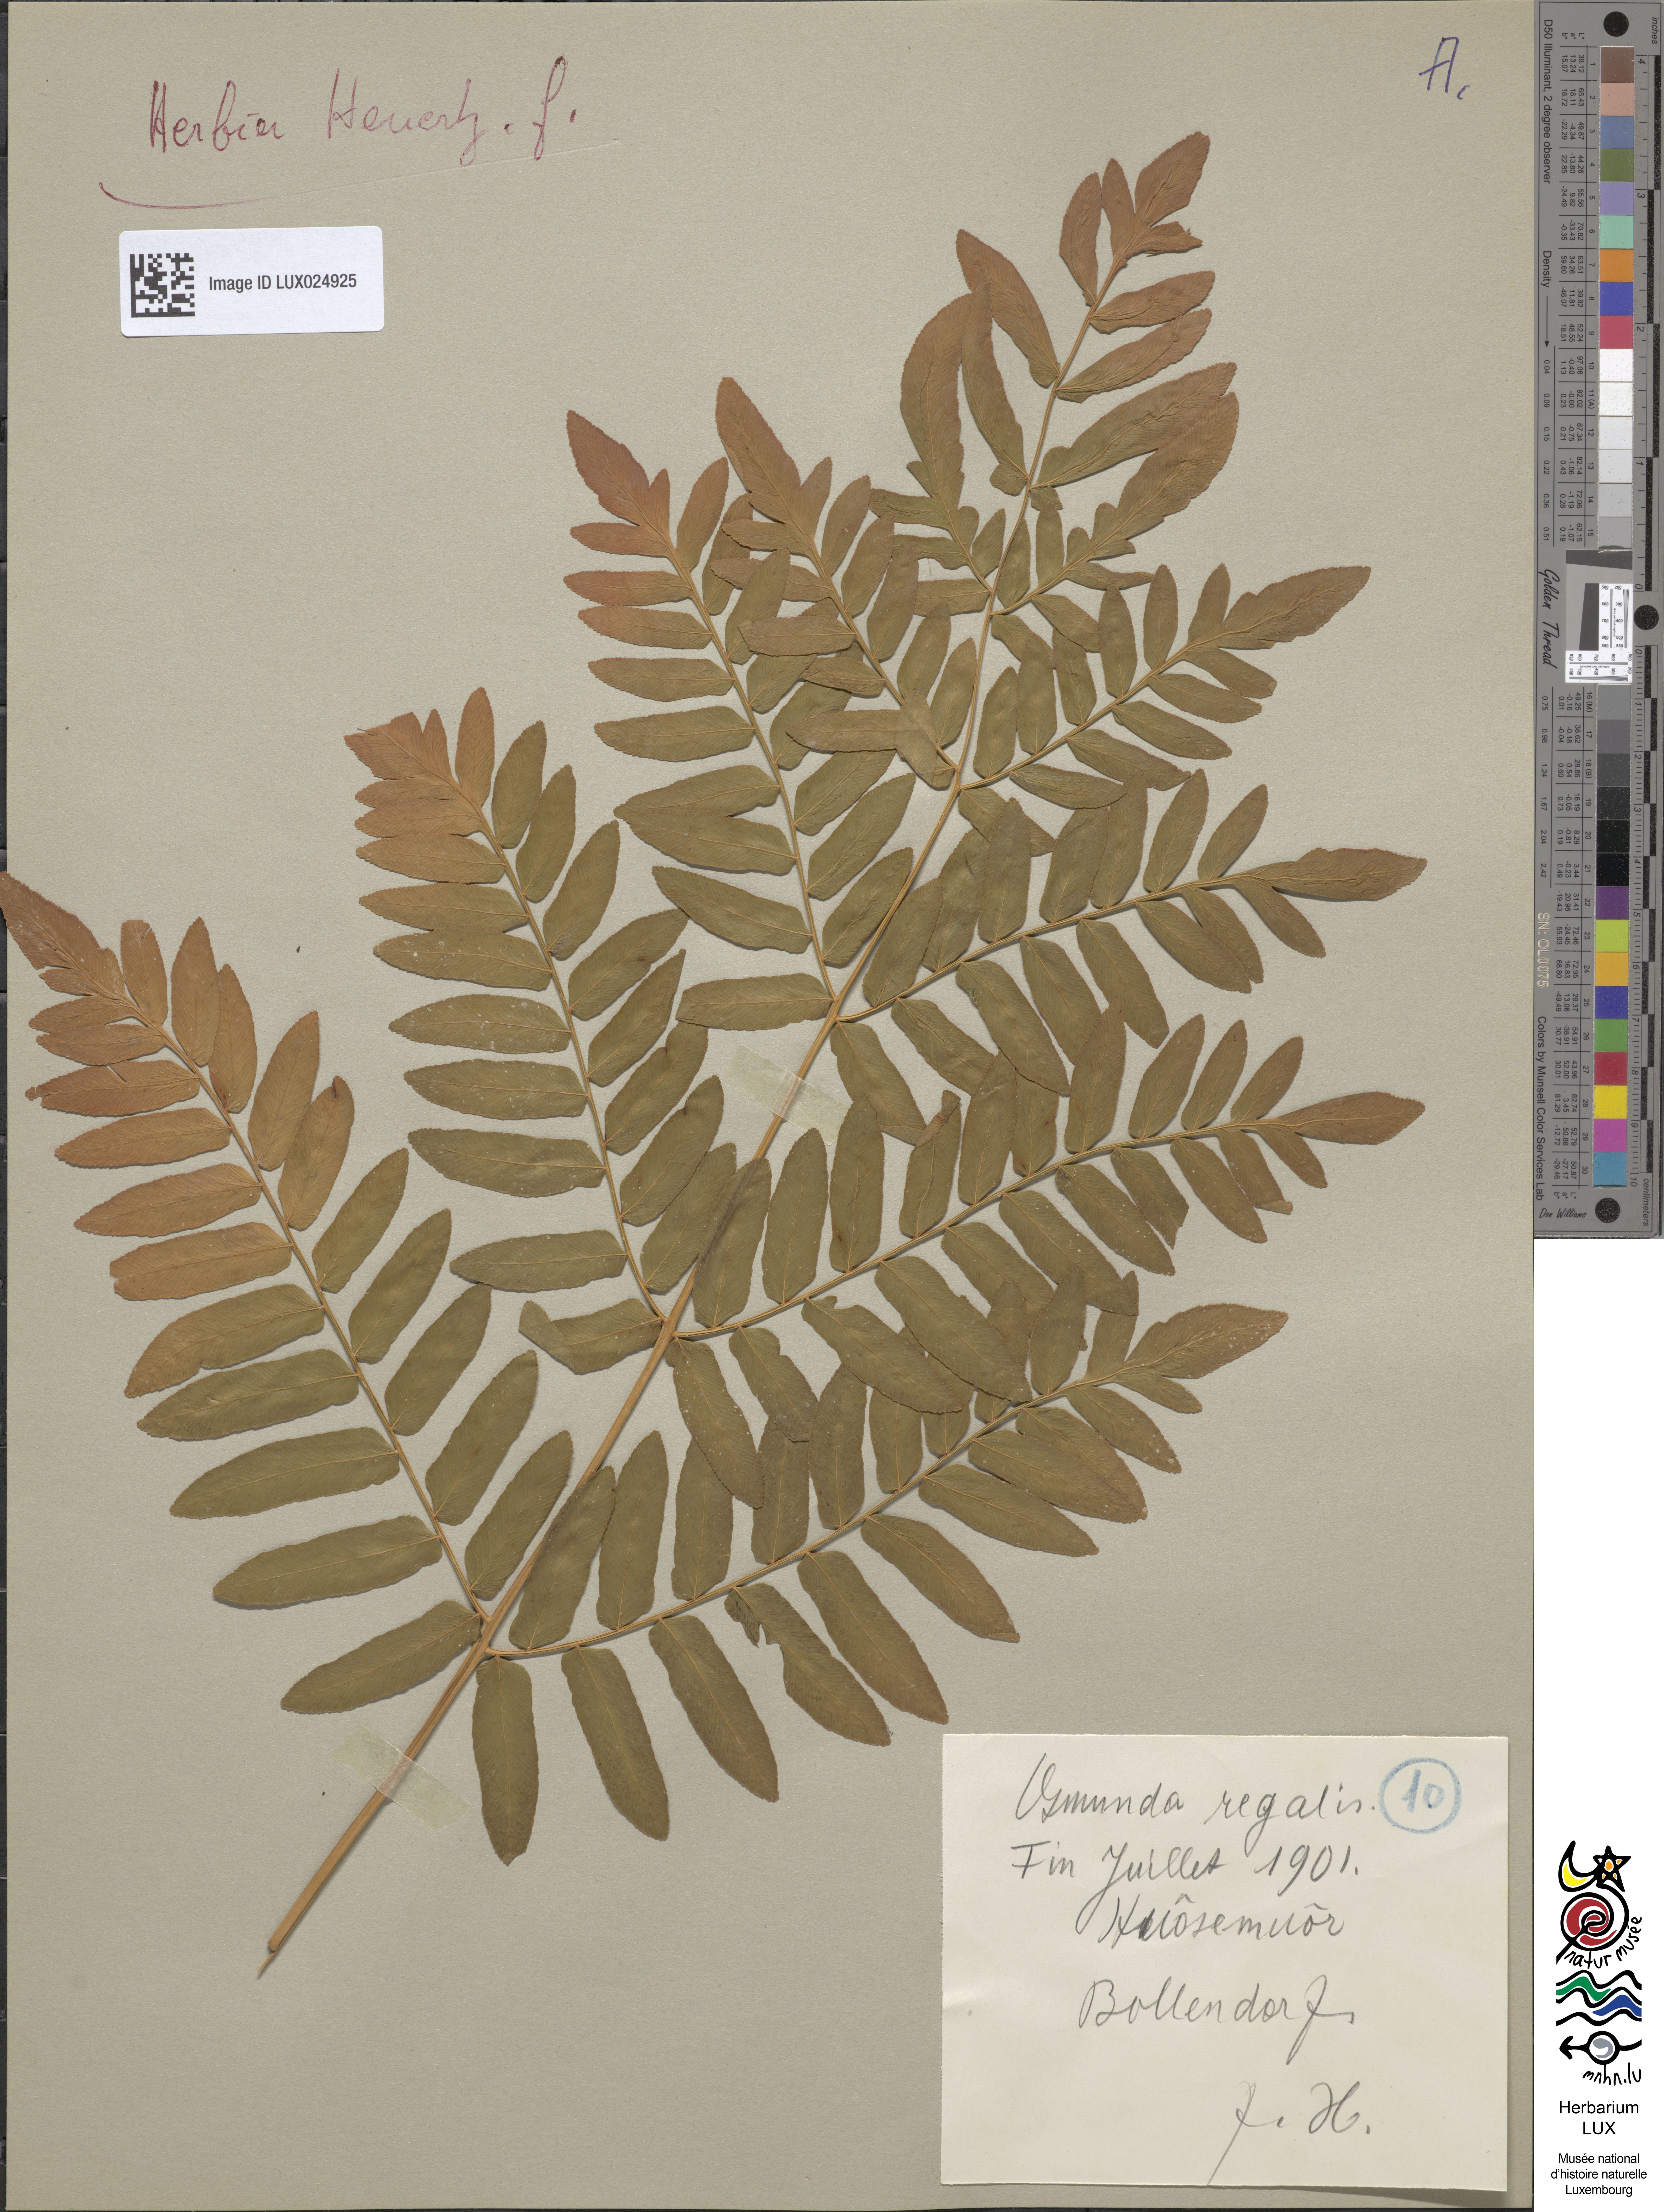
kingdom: Plantae
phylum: Tracheophyta
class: Polypodiopsida
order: Polypodiales
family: Dryopteridaceae
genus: Polystichum
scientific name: Polystichum lonchitis
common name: Holly fern
